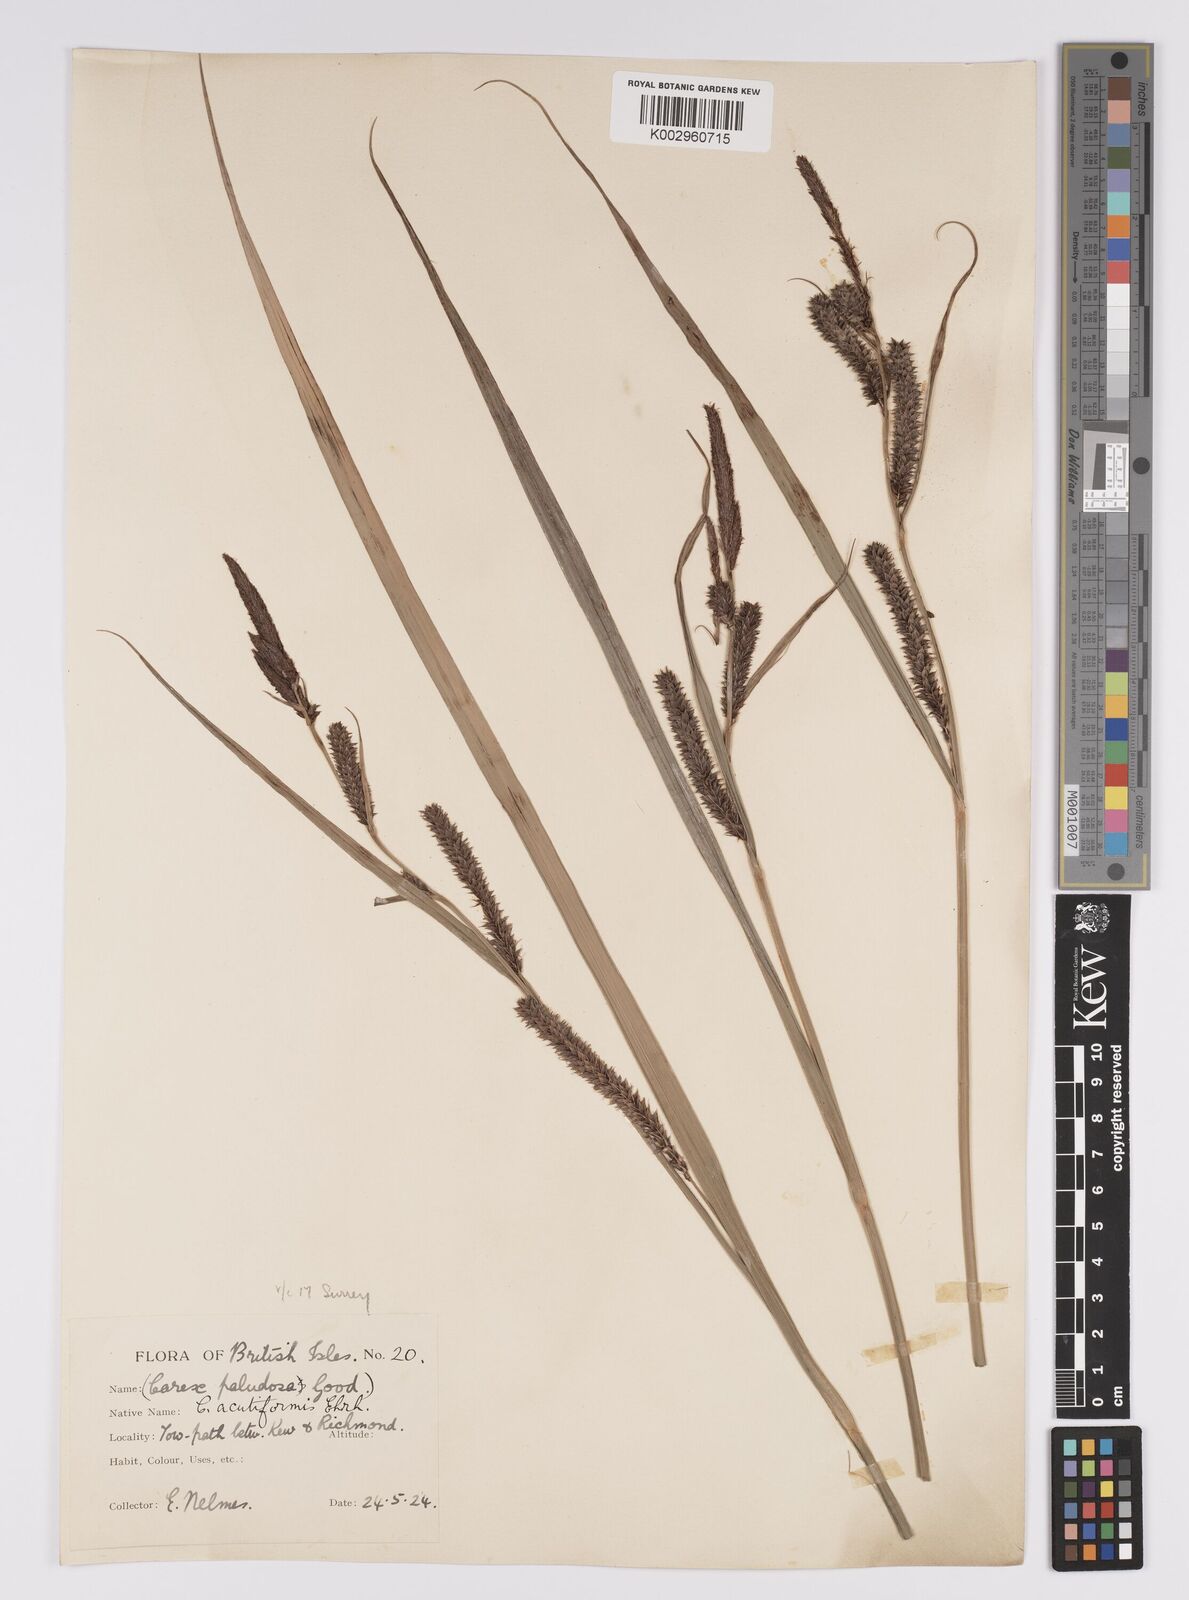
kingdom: Plantae
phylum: Tracheophyta
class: Liliopsida
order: Poales
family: Cyperaceae
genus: Carex
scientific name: Carex acutiformis
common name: Lesser pond-sedge
